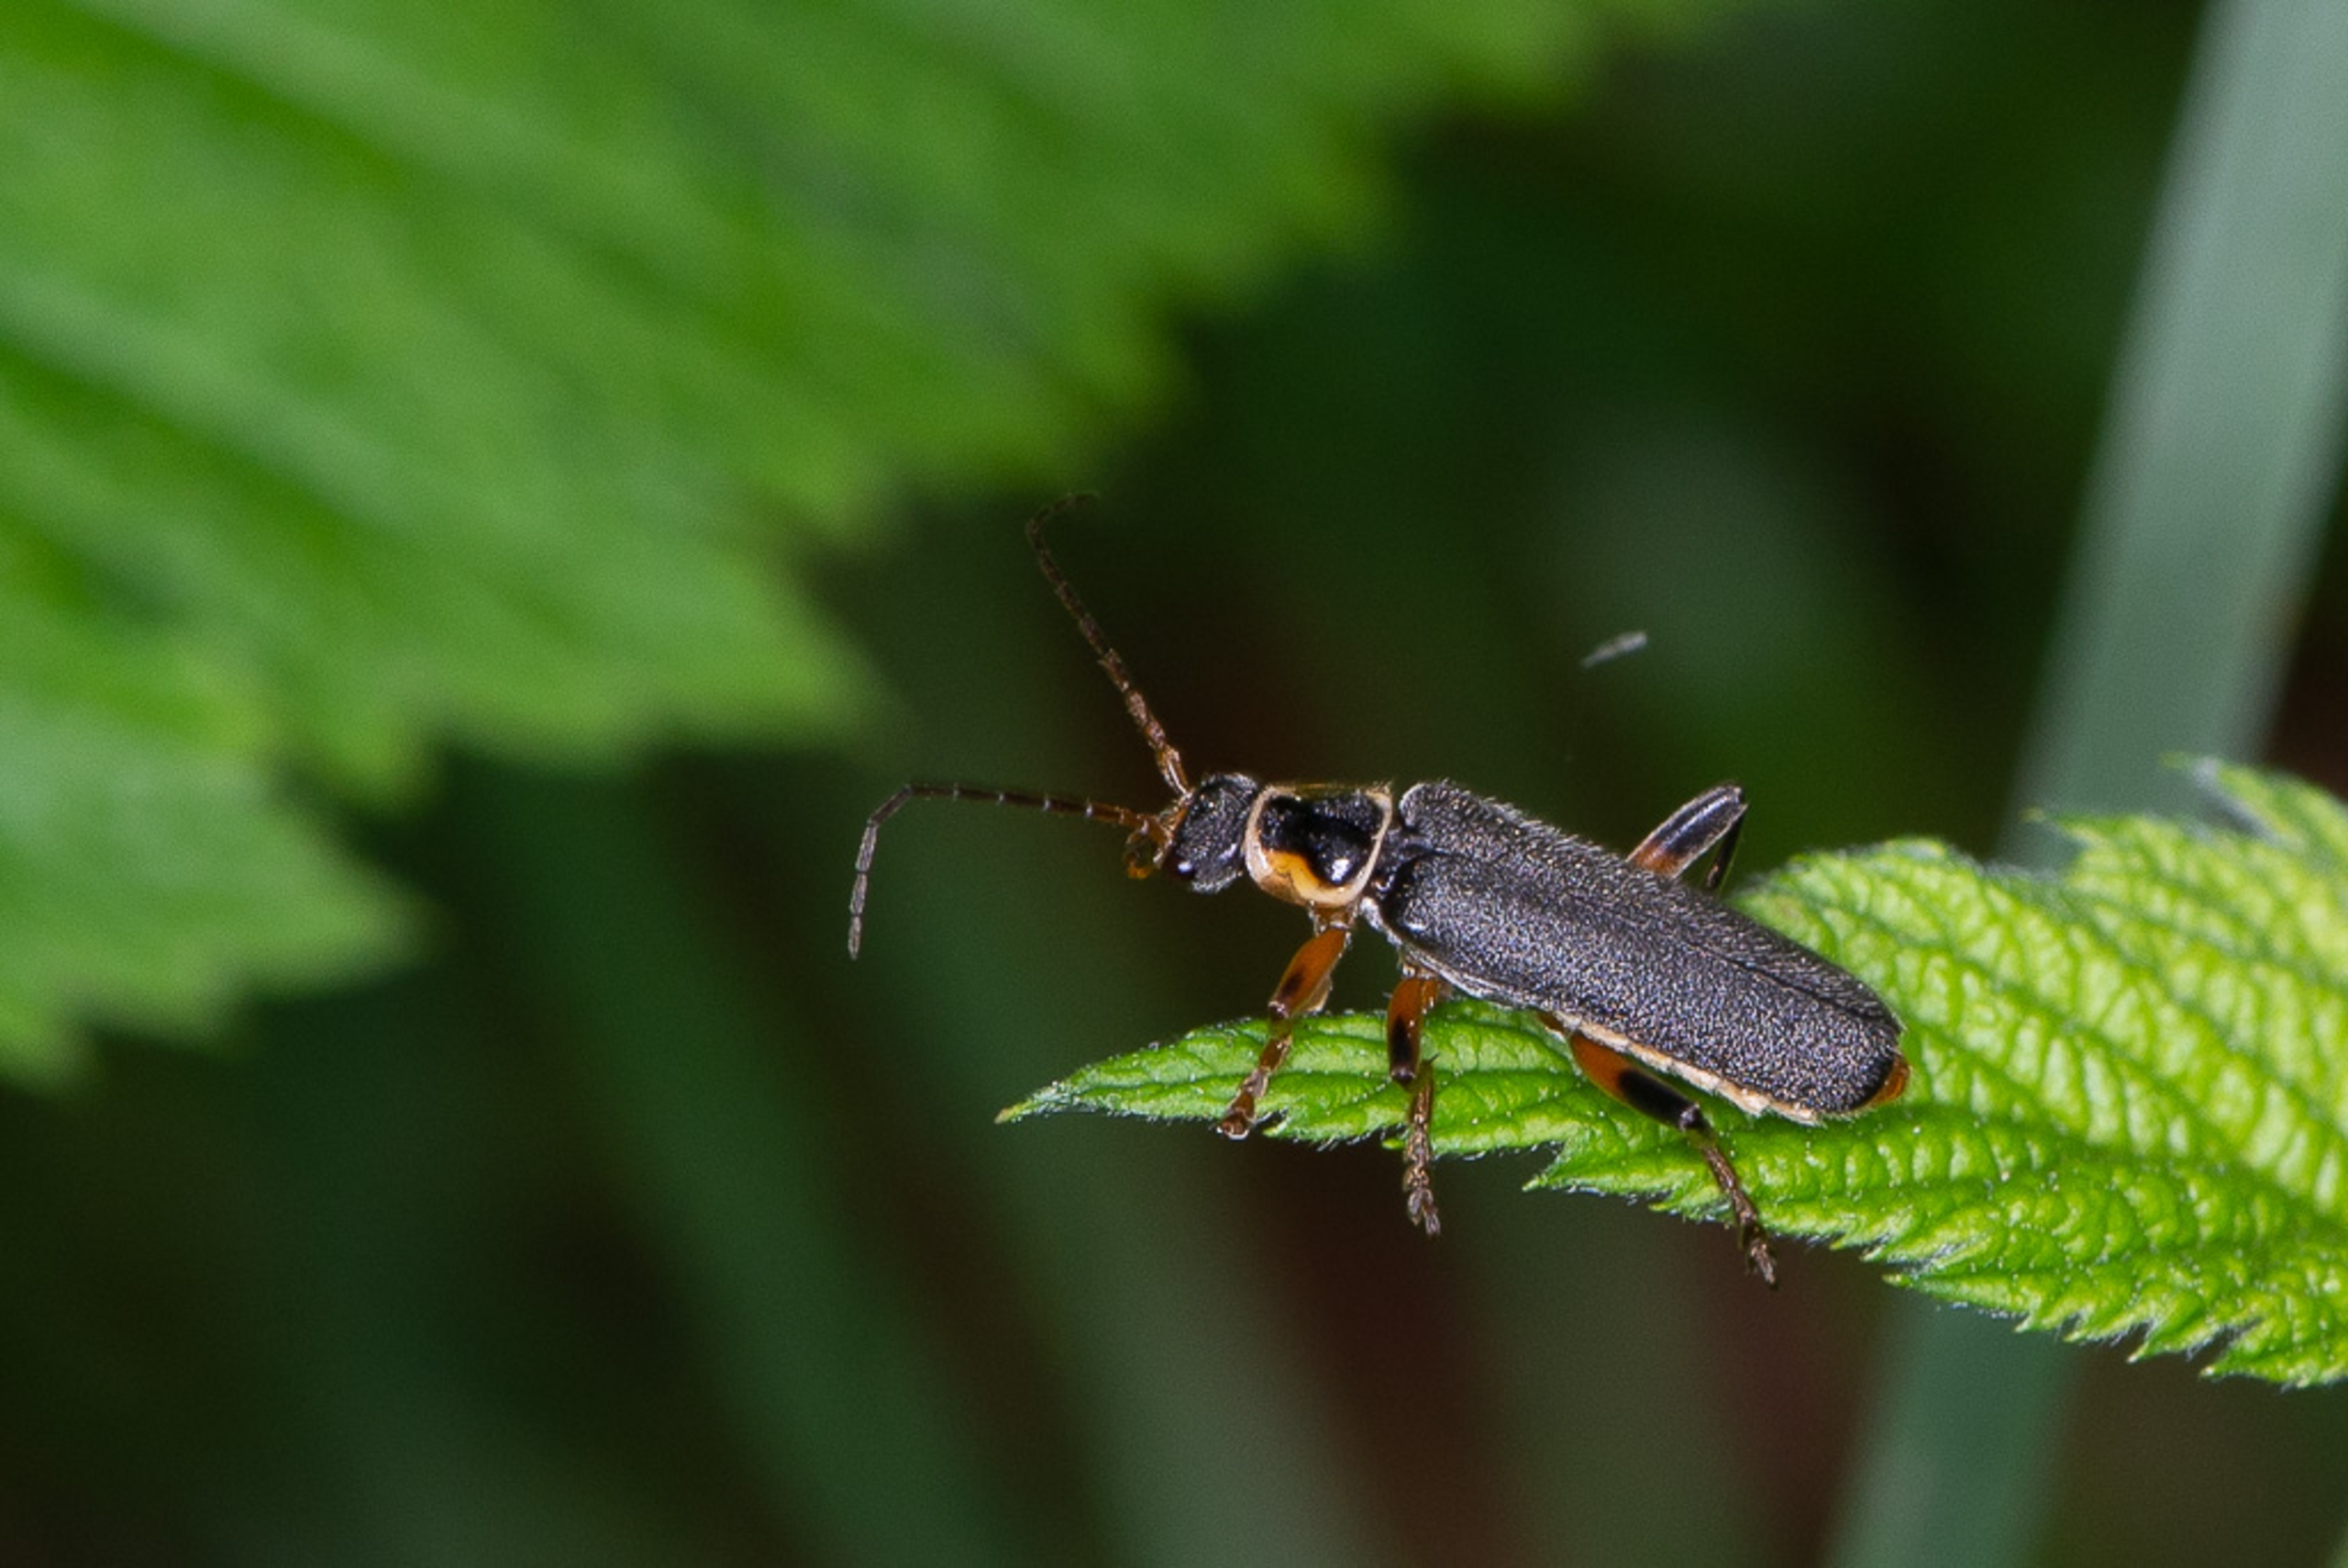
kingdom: Animalia
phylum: Arthropoda
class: Insecta
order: Coleoptera
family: Cantharidae
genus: Cantharis
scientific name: Cantharis nigricans
